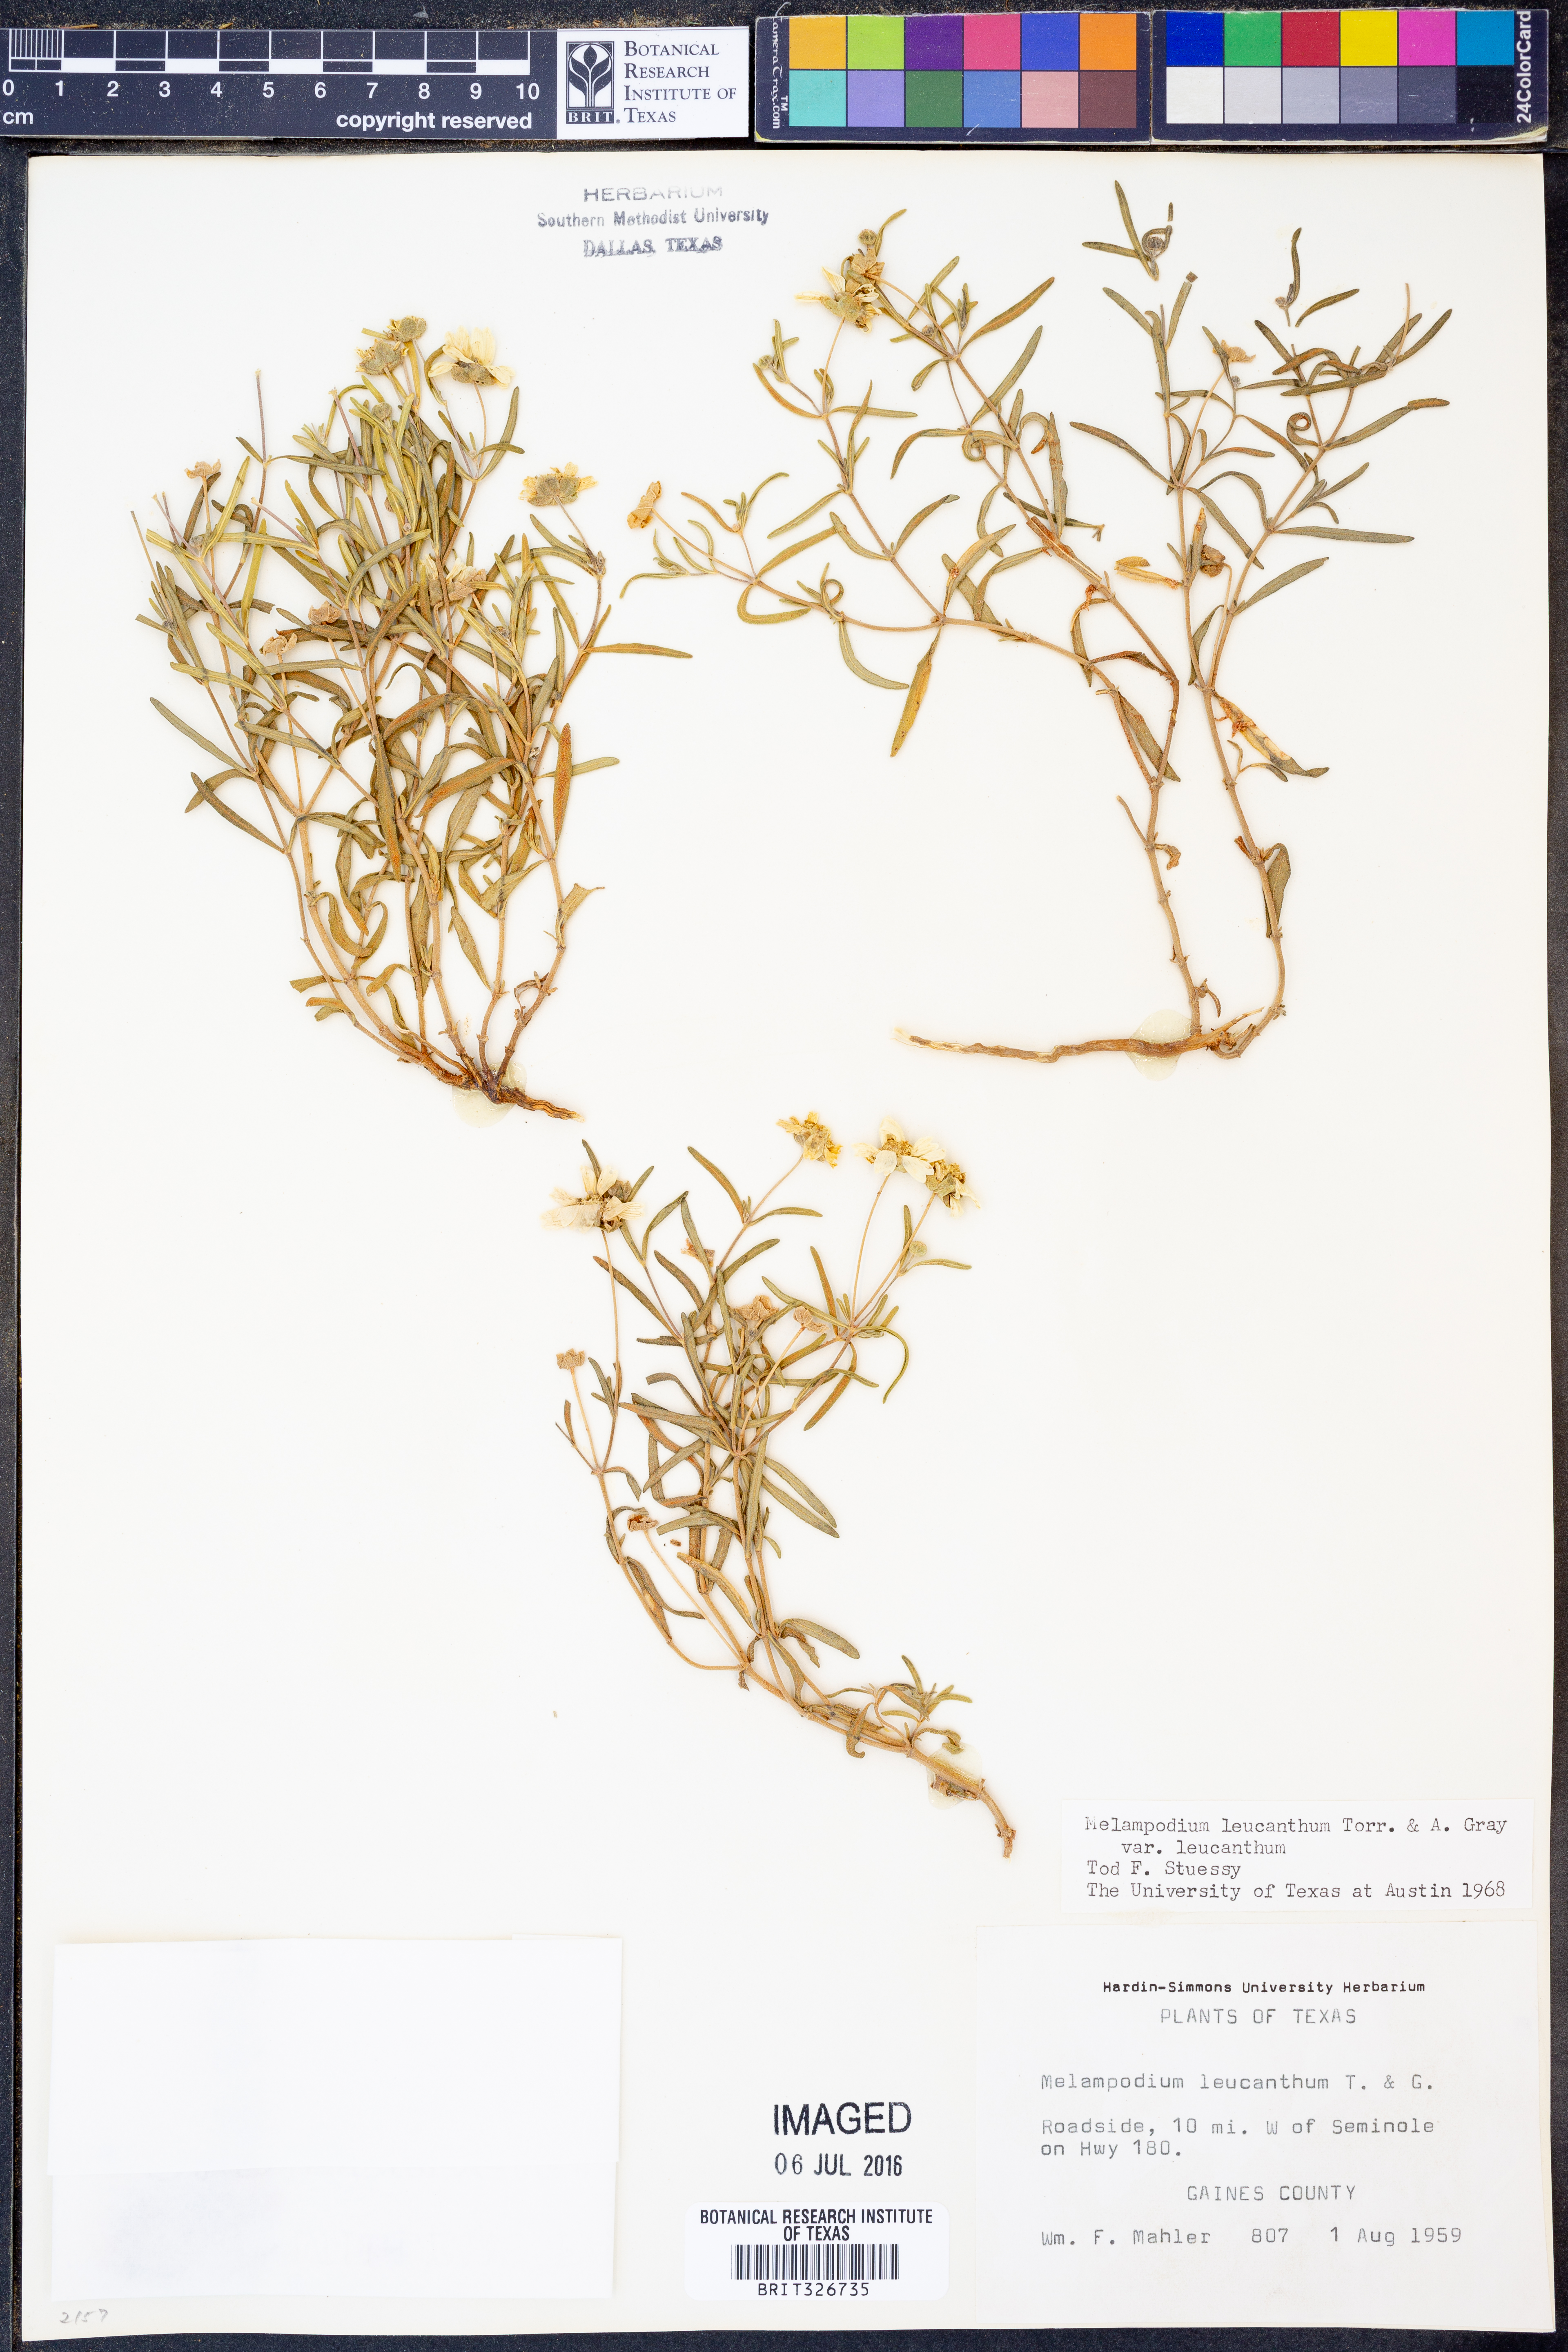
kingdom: Plantae
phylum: Tracheophyta
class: Magnoliopsida
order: Asterales
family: Asteraceae
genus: Melampodium
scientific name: Melampodium leucanthum
